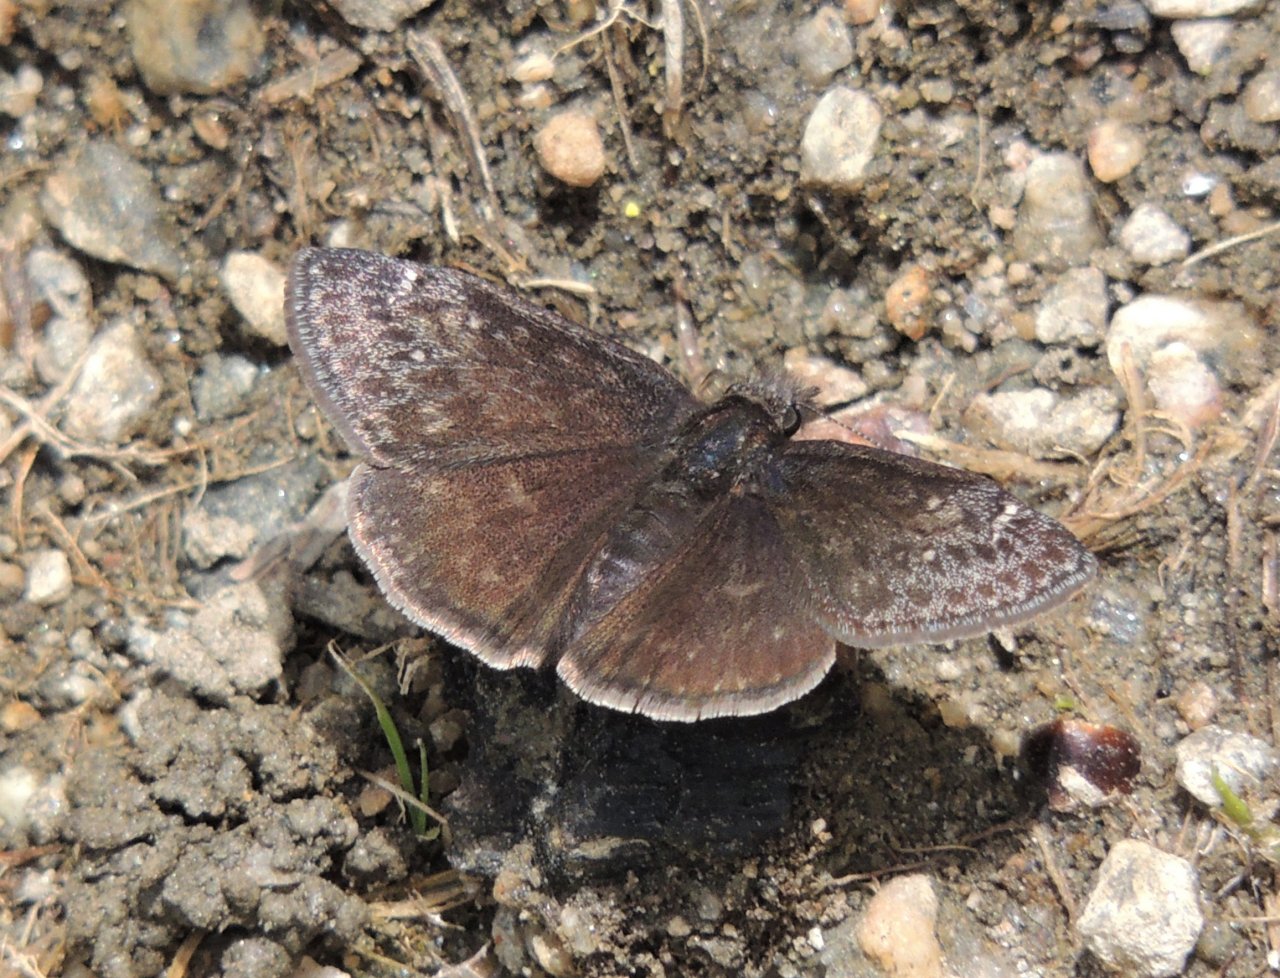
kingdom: Animalia
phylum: Arthropoda
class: Insecta
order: Lepidoptera
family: Hesperiidae
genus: Gesta
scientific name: Gesta
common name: Persius Duskywing
